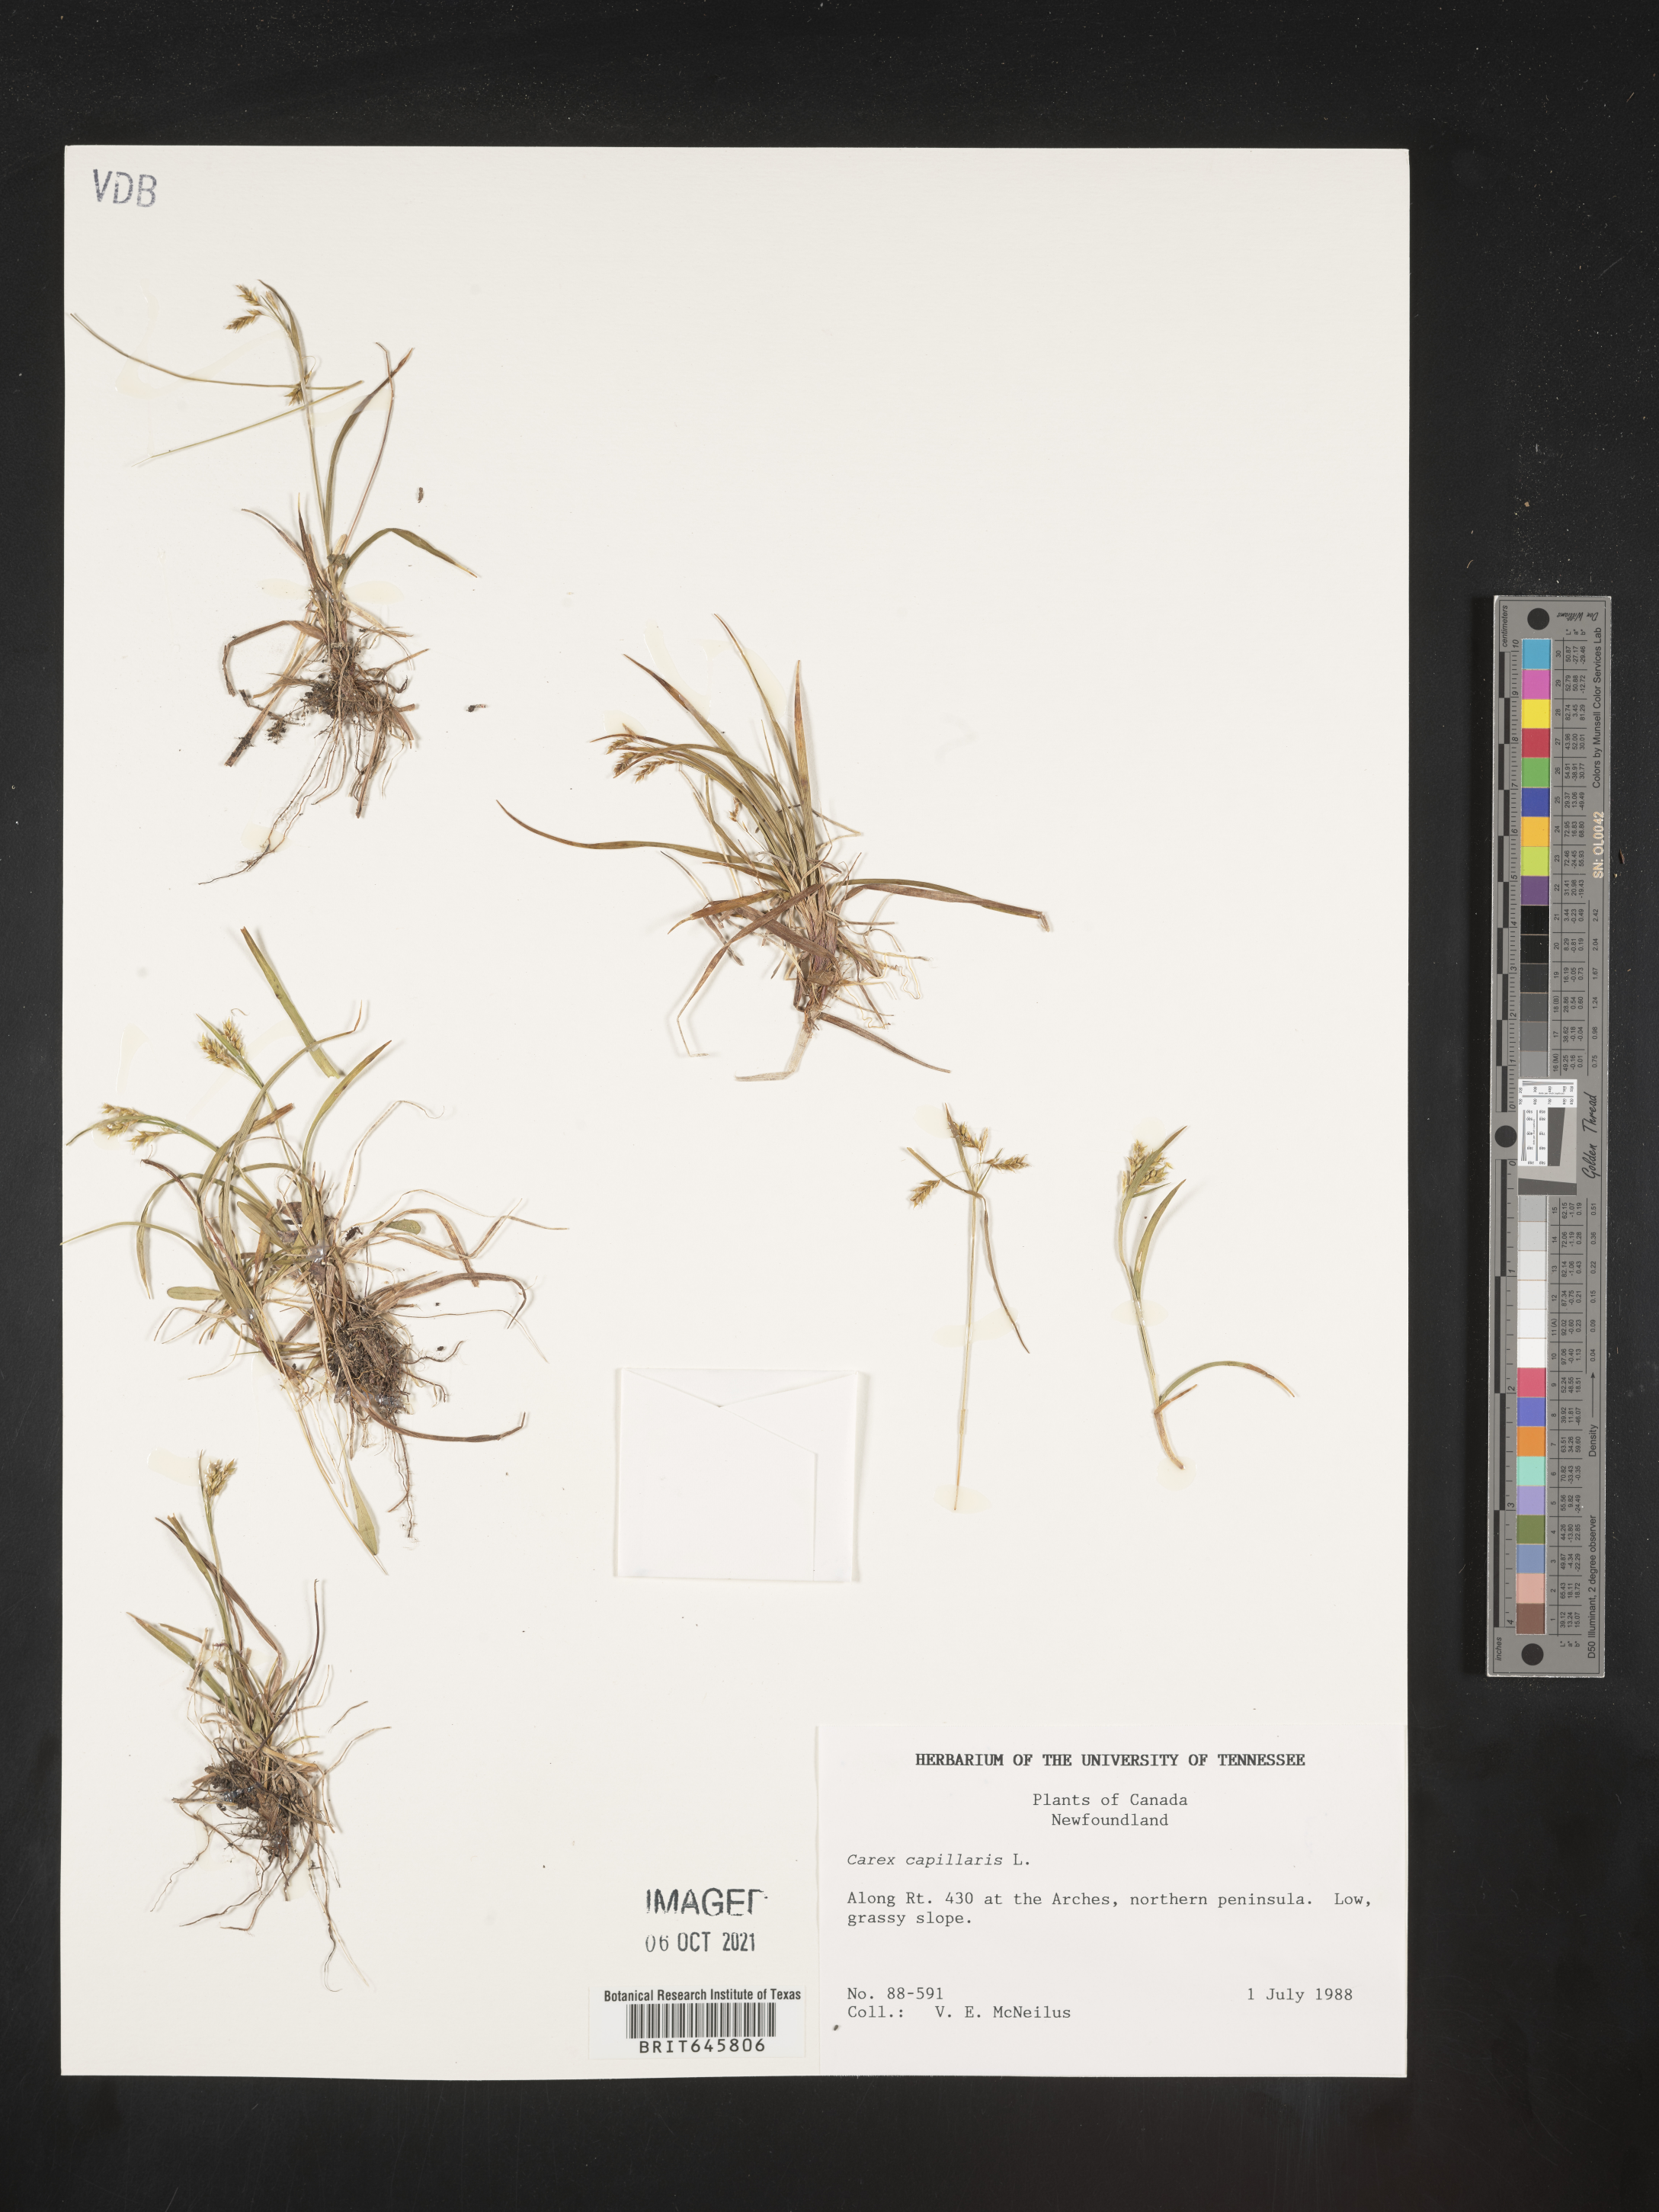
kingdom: Plantae
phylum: Tracheophyta
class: Liliopsida
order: Poales
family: Cyperaceae
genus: Carex
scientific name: Carex capillaris
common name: Hair sedge
